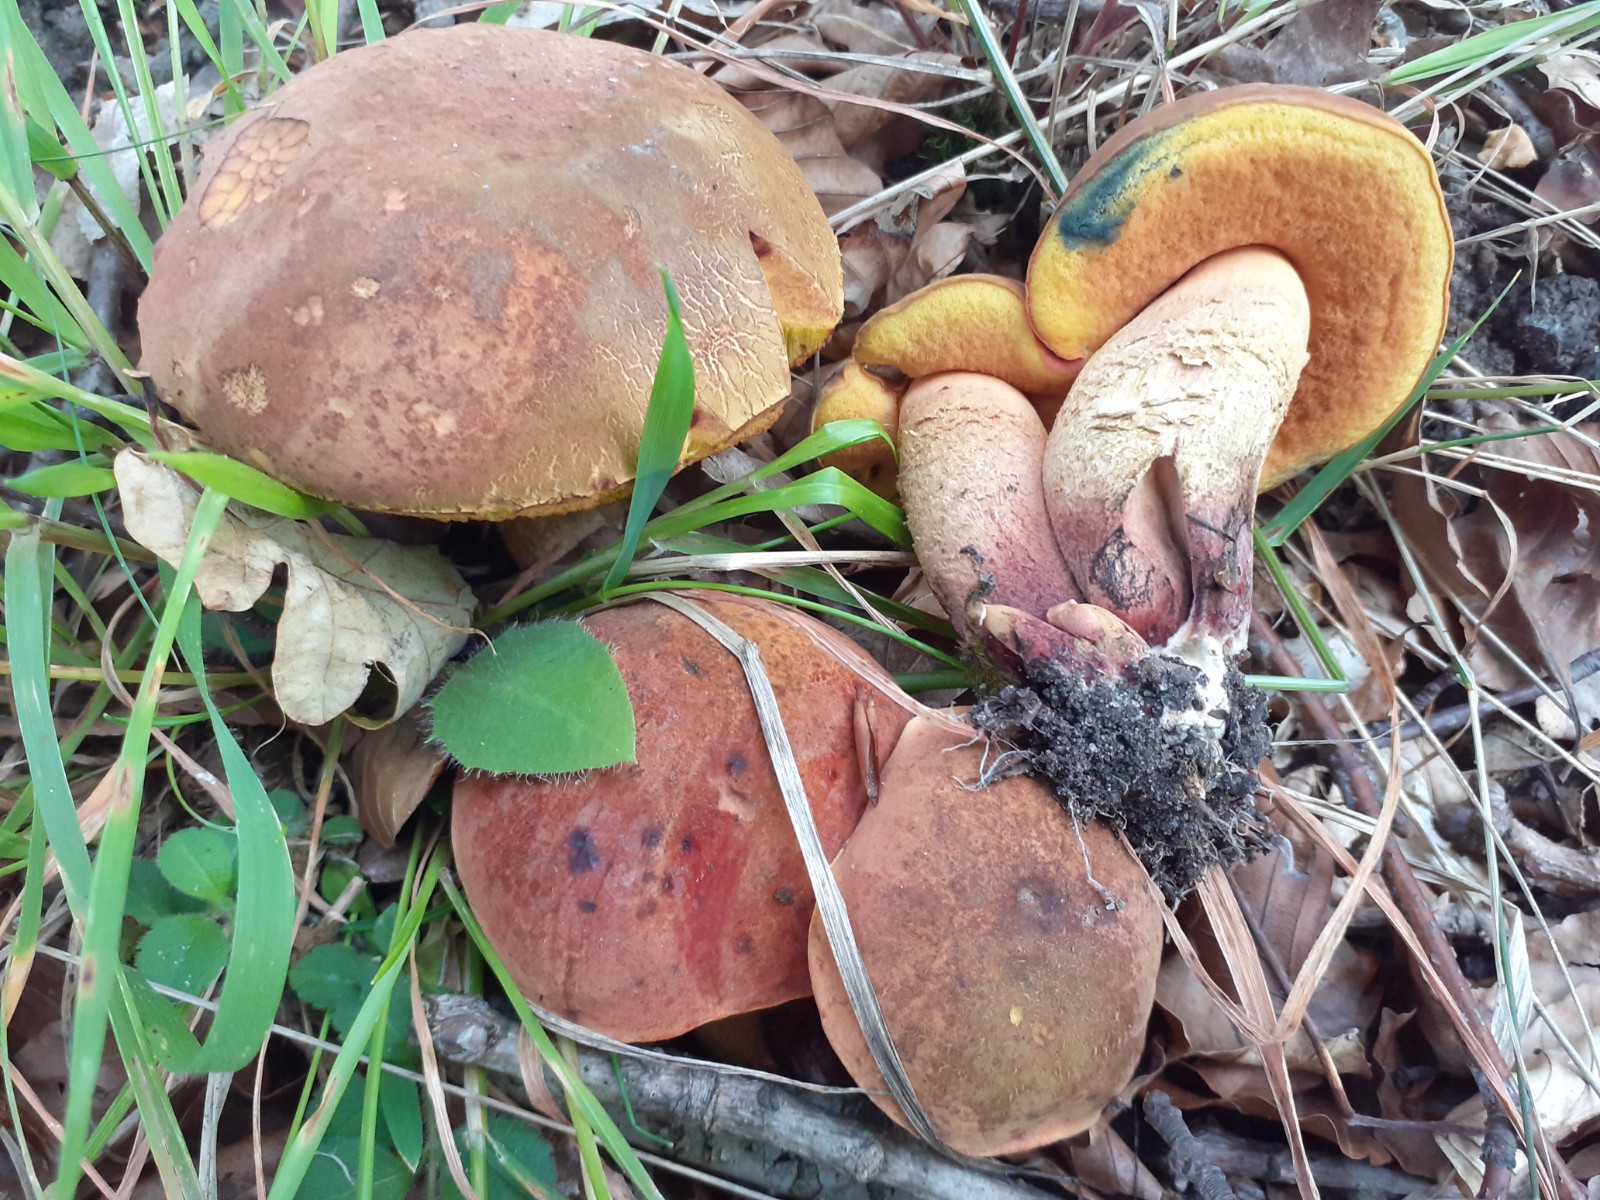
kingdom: Fungi
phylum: Basidiomycota
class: Agaricomycetes
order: Boletales
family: Boletaceae
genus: Suillellus
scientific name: Suillellus queletii
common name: glatstokket indigorørhat
